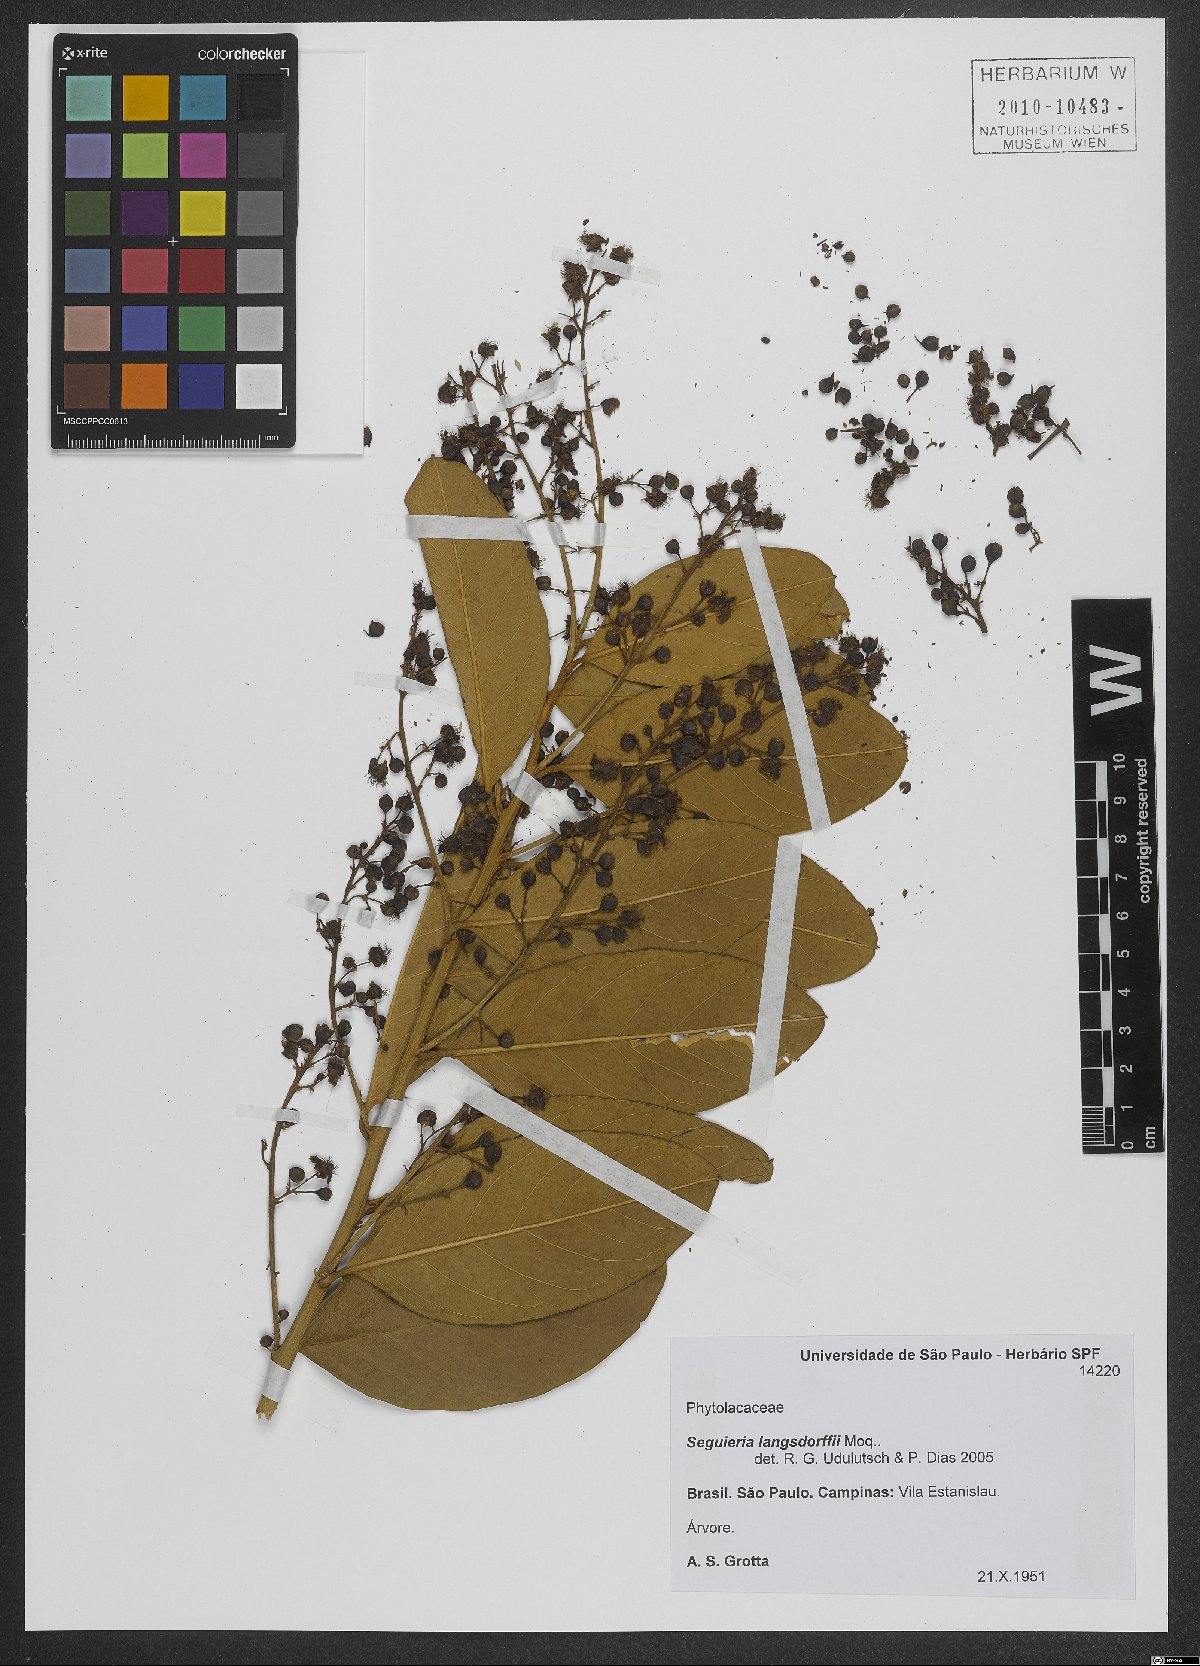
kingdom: Plantae
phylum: Tracheophyta
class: Magnoliopsida
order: Caryophyllales
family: Phytolaccaceae
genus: Seguieria
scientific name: Seguieria langsdorffii
